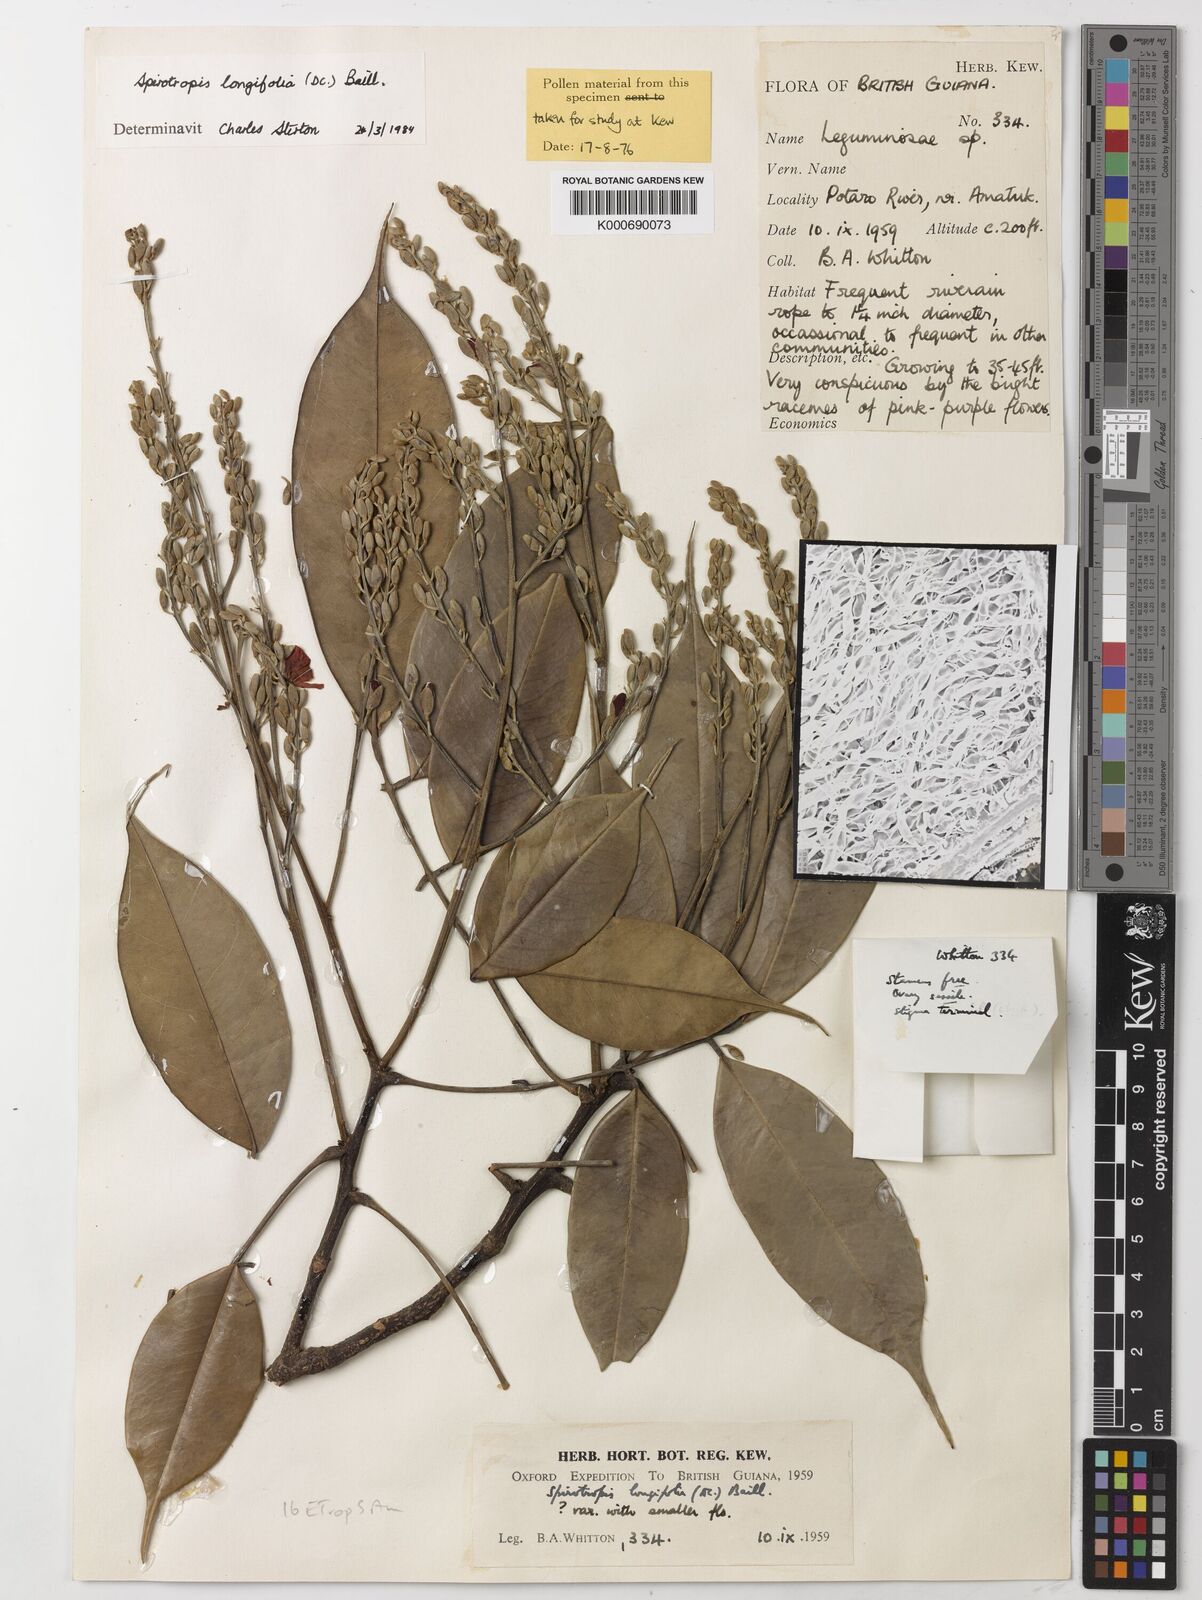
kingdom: Plantae
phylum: Tracheophyta
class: Magnoliopsida
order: Fabales
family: Fabaceae
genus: Spirotropis
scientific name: Spirotropis longifolia
